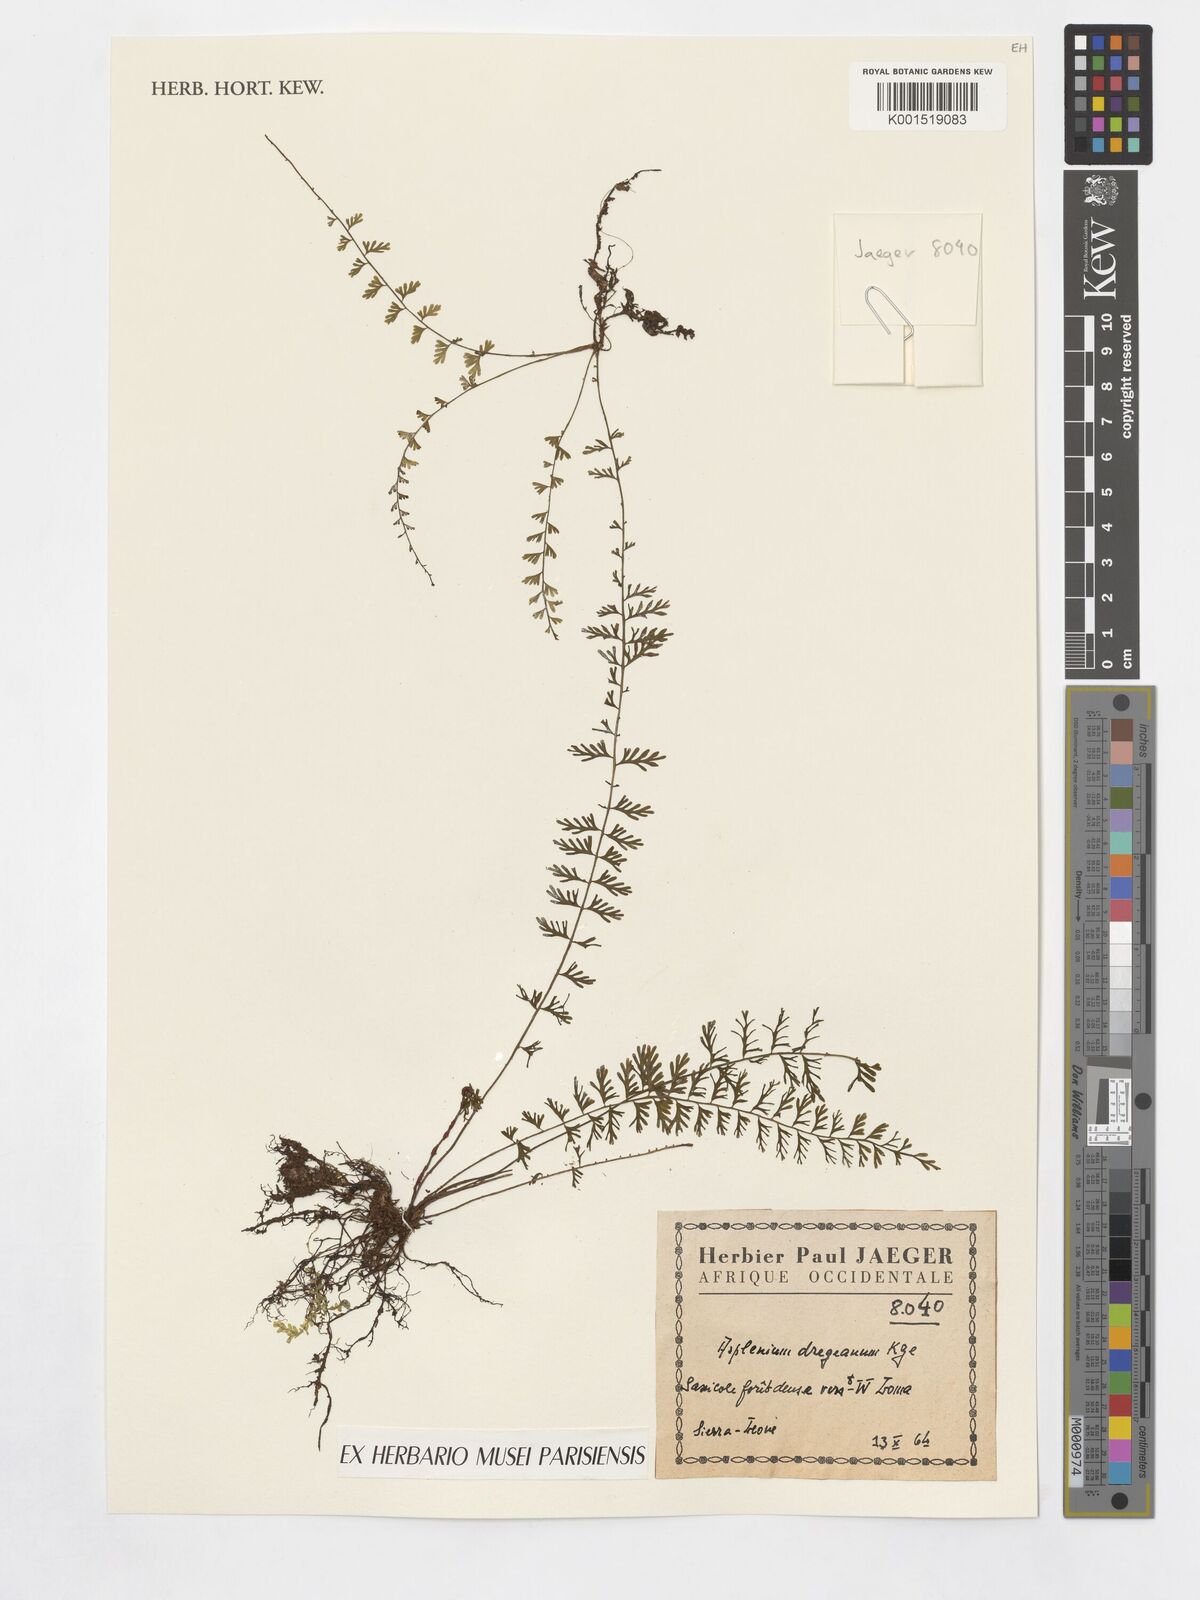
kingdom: Plantae
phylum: Tracheophyta
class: Polypodiopsida
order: Polypodiales
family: Aspleniaceae
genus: Asplenium
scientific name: Asplenium dregeanum
